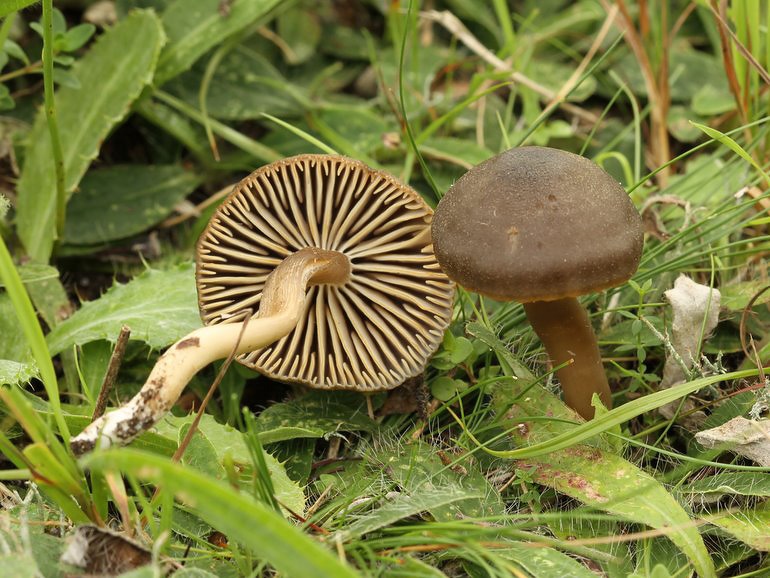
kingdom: Fungi
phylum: Basidiomycota
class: Agaricomycetes
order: Agaricales
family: Hygrophoraceae
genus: Neohygrocybe
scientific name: Neohygrocybe nitrata
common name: stinkende vokshat
